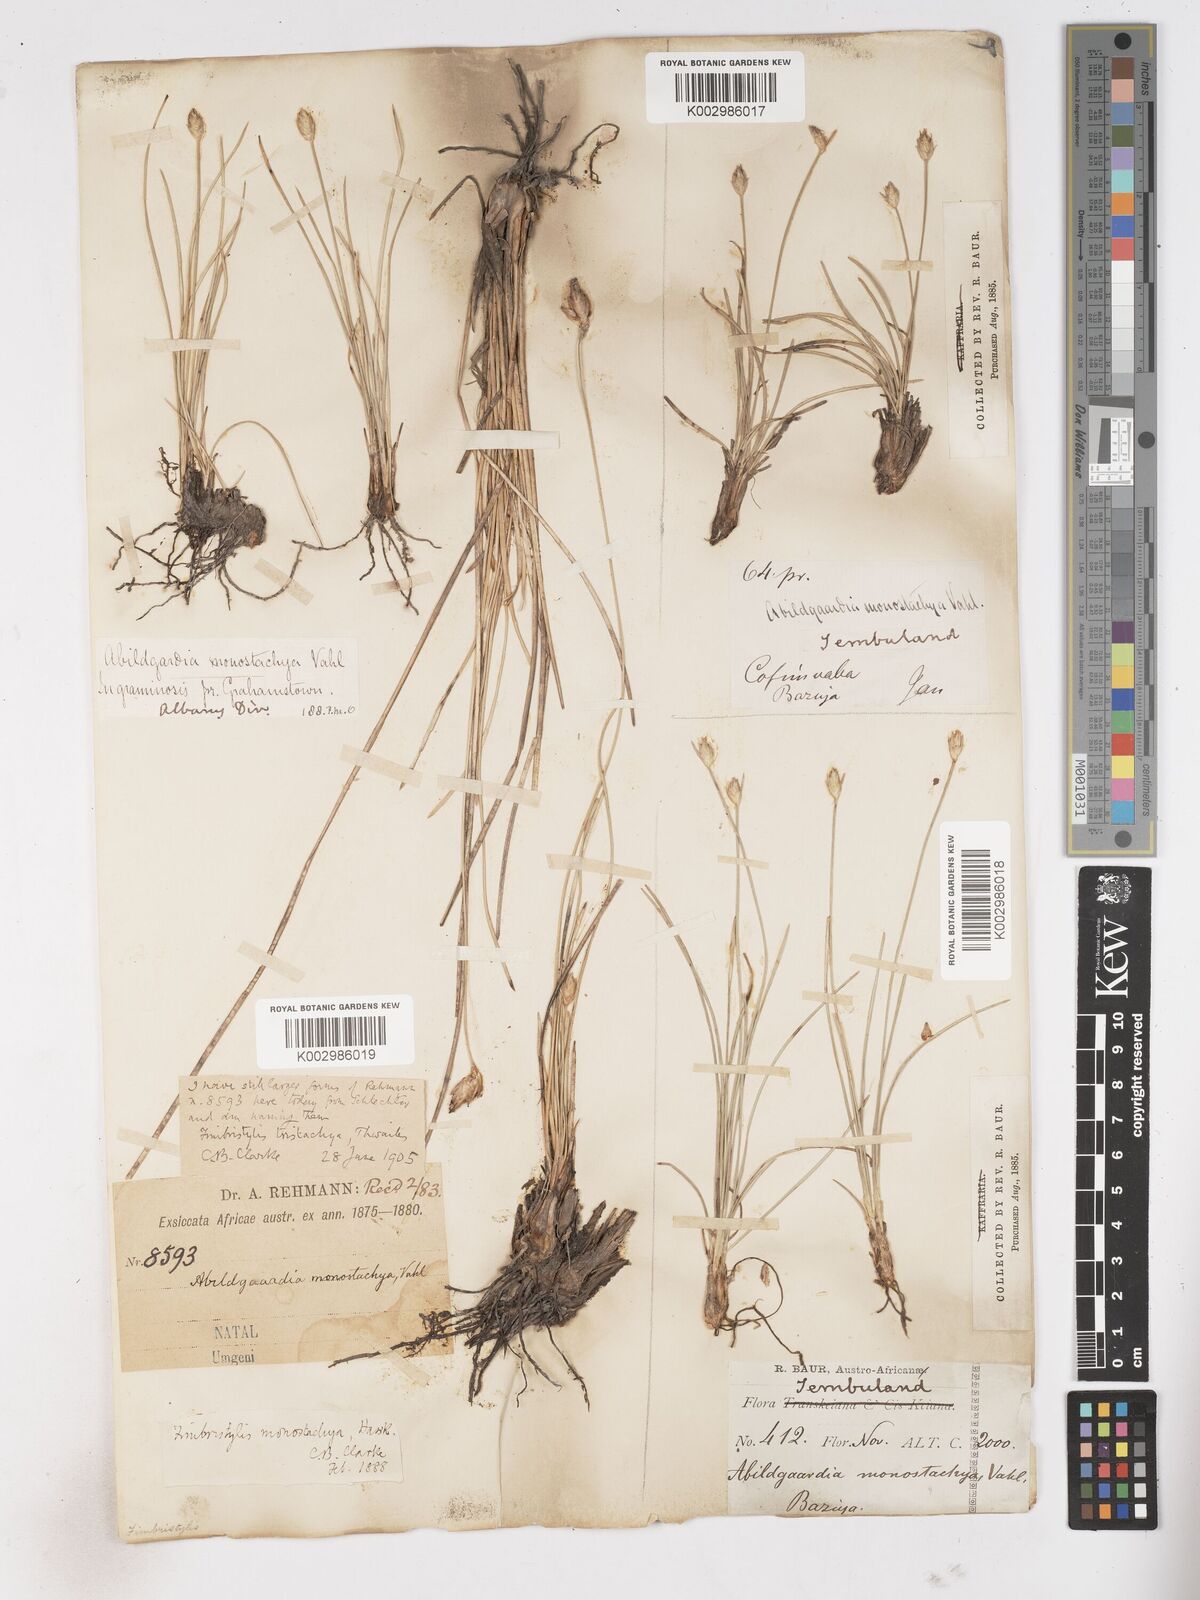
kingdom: Plantae
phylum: Tracheophyta
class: Liliopsida
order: Poales
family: Cyperaceae
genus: Abildgaardia
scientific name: Abildgaardia ovata
